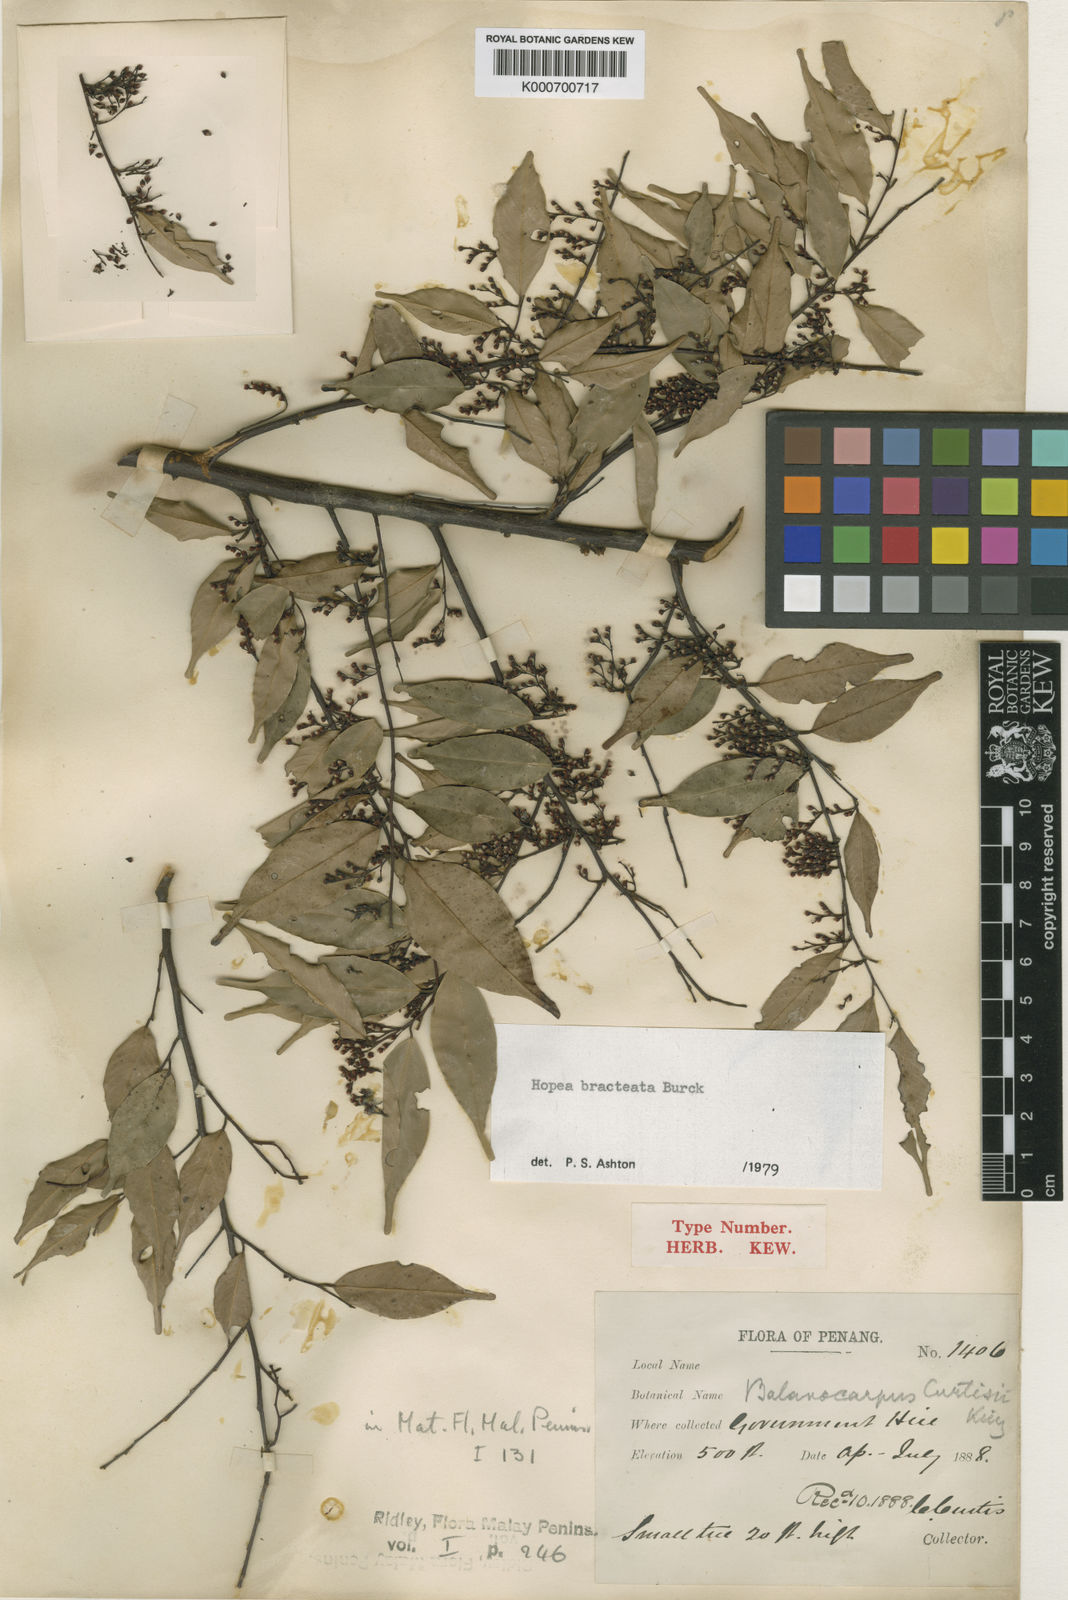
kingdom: Plantae
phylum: Tracheophyta
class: Magnoliopsida
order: Malvales
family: Dipterocarpaceae
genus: Hopea
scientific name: Hopea bracteata
